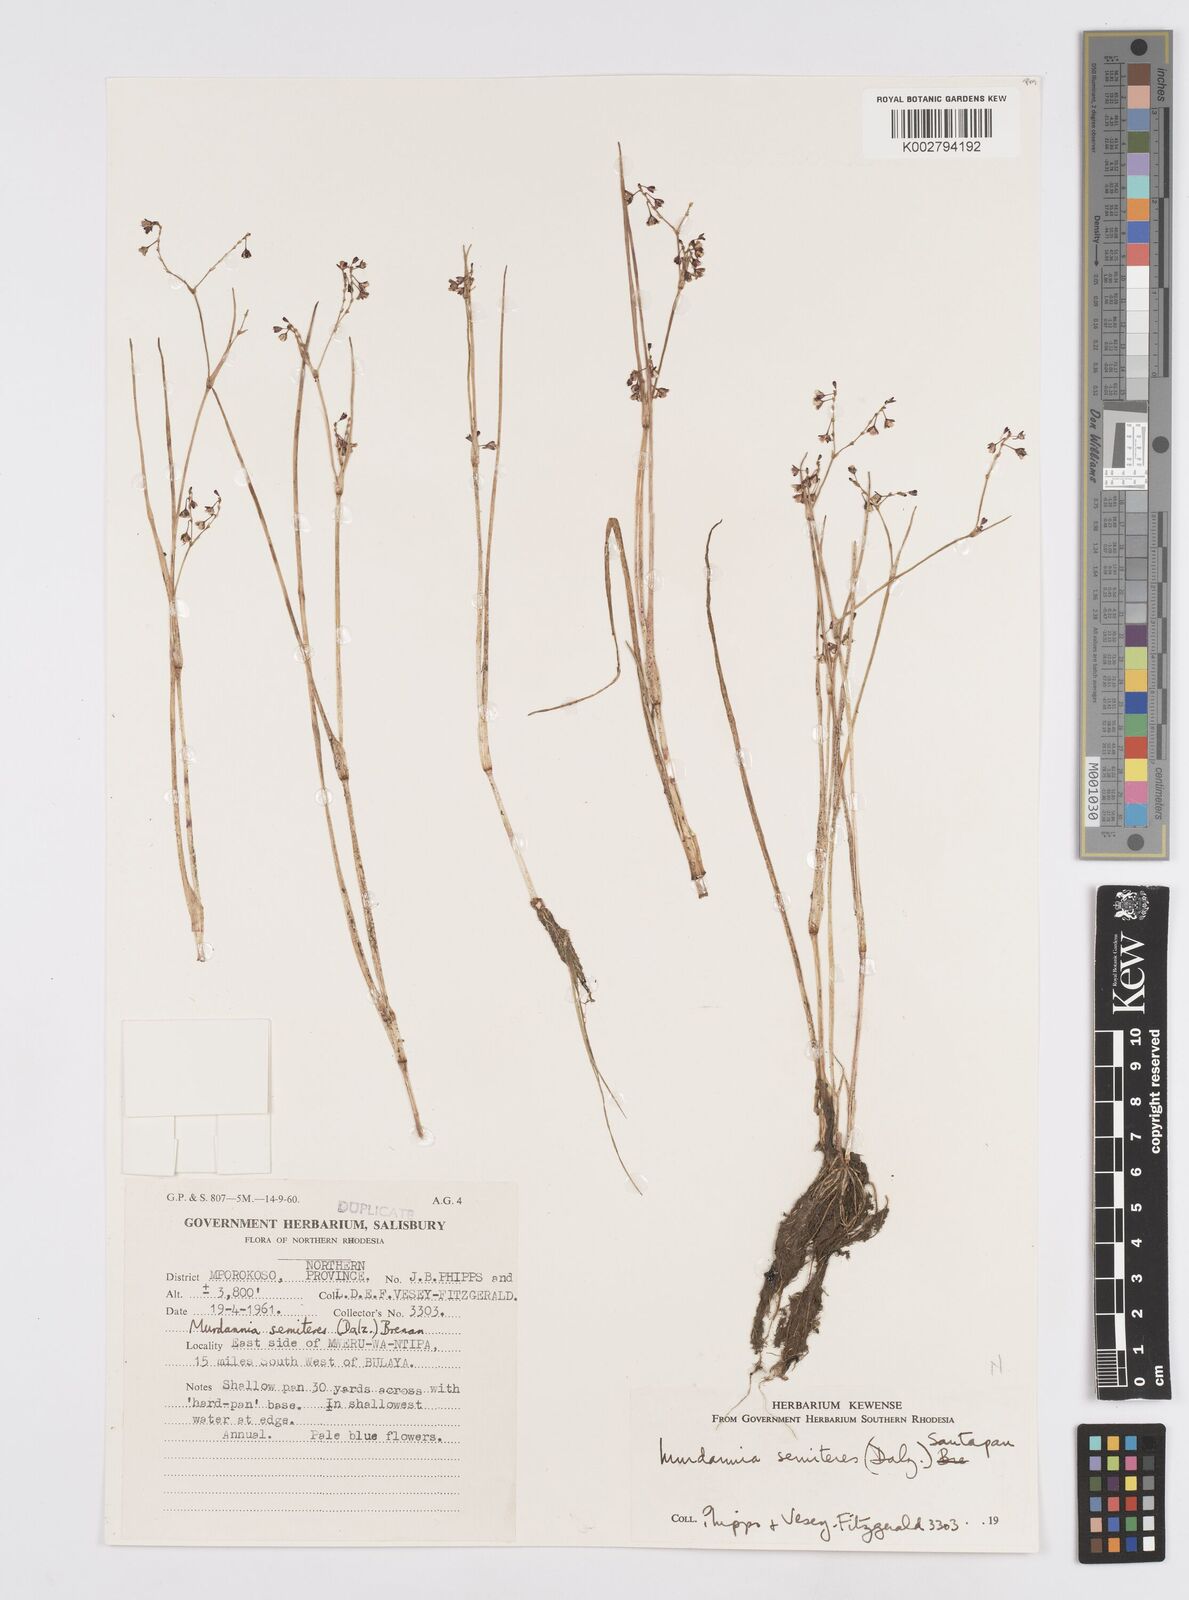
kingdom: Plantae
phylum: Tracheophyta
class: Liliopsida
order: Commelinales
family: Commelinaceae
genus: Murdannia
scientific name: Murdannia semiteres
